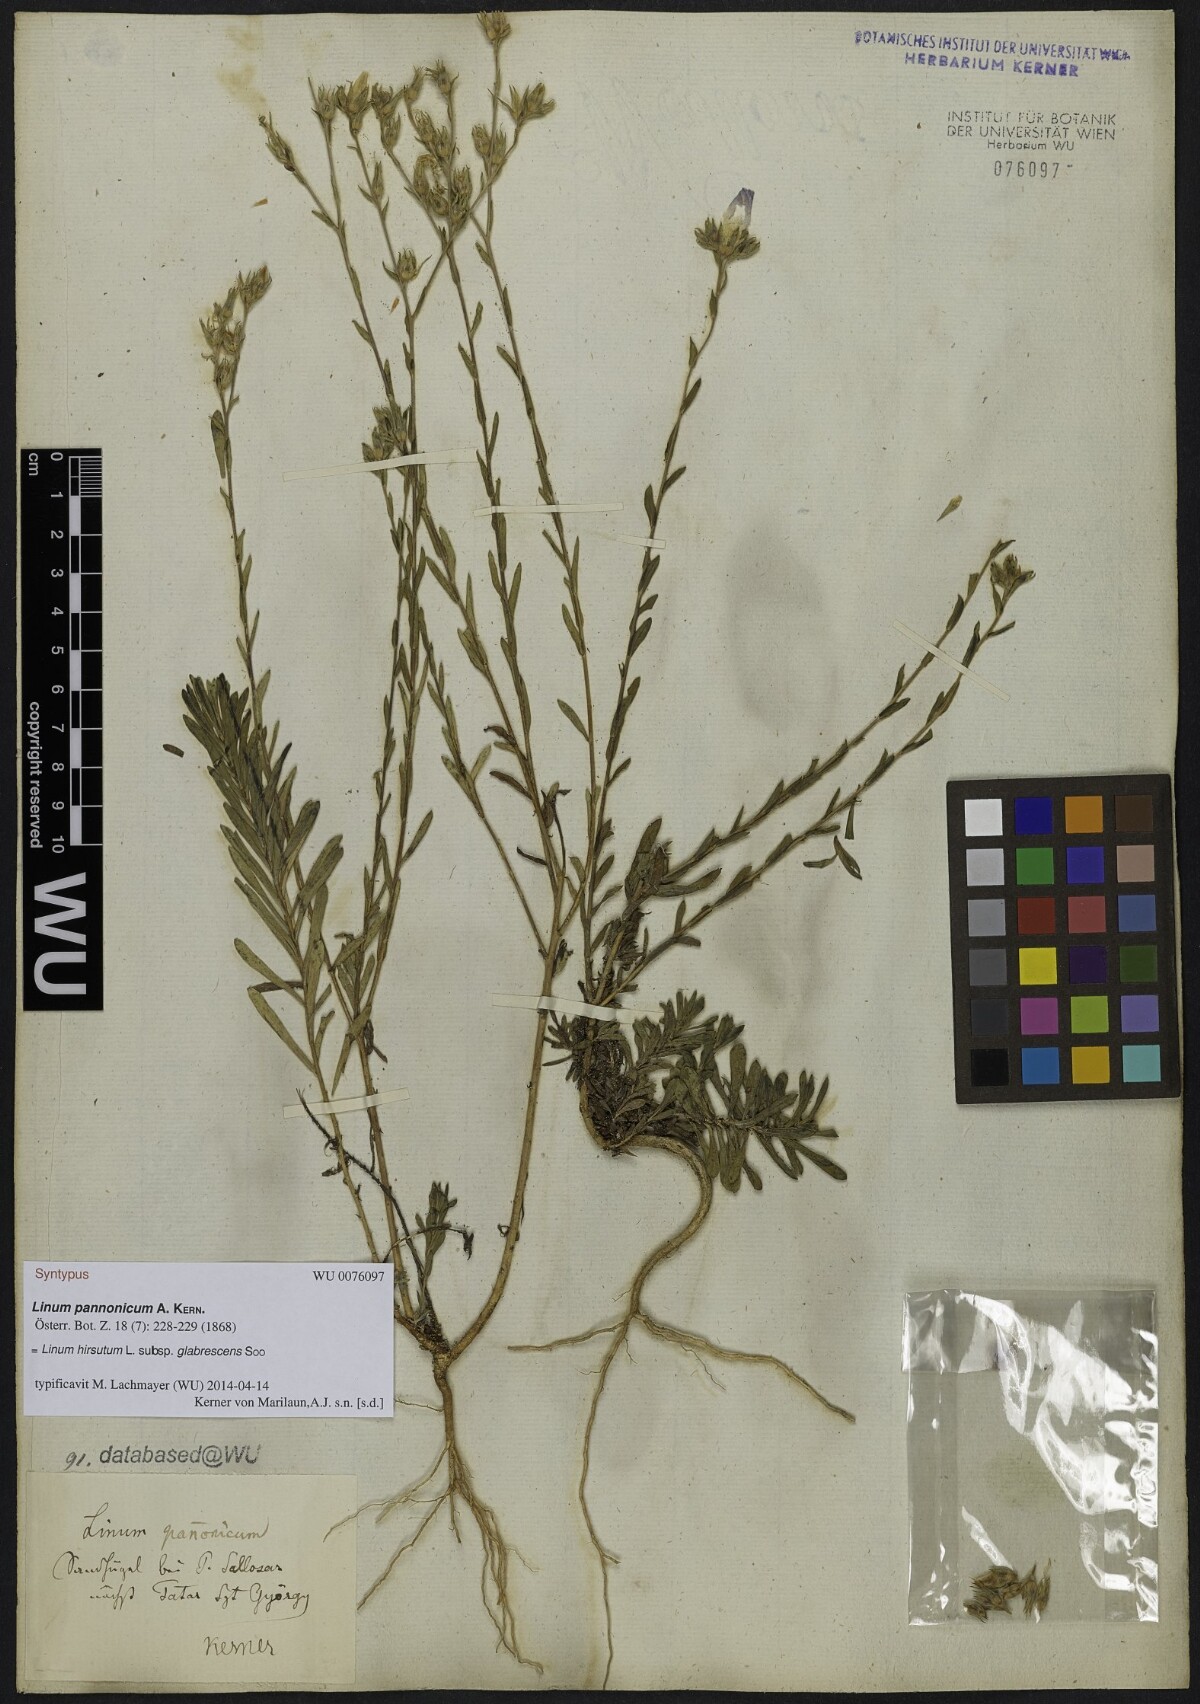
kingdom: Plantae
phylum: Tracheophyta
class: Magnoliopsida
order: Malpighiales
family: Linaceae
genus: Linum
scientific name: Linum hirsutum
